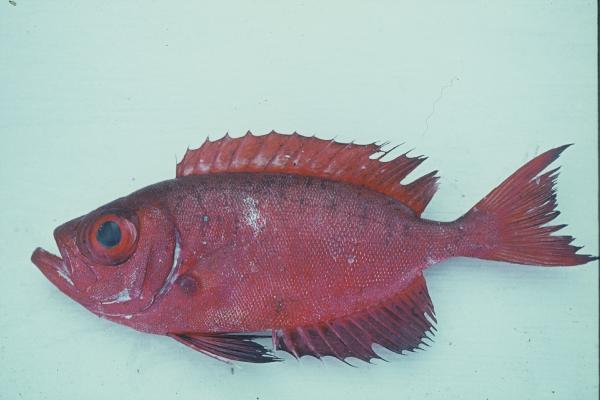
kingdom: Animalia
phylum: Chordata
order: Perciformes
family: Priacanthidae
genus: Priacanthus
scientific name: Priacanthus
